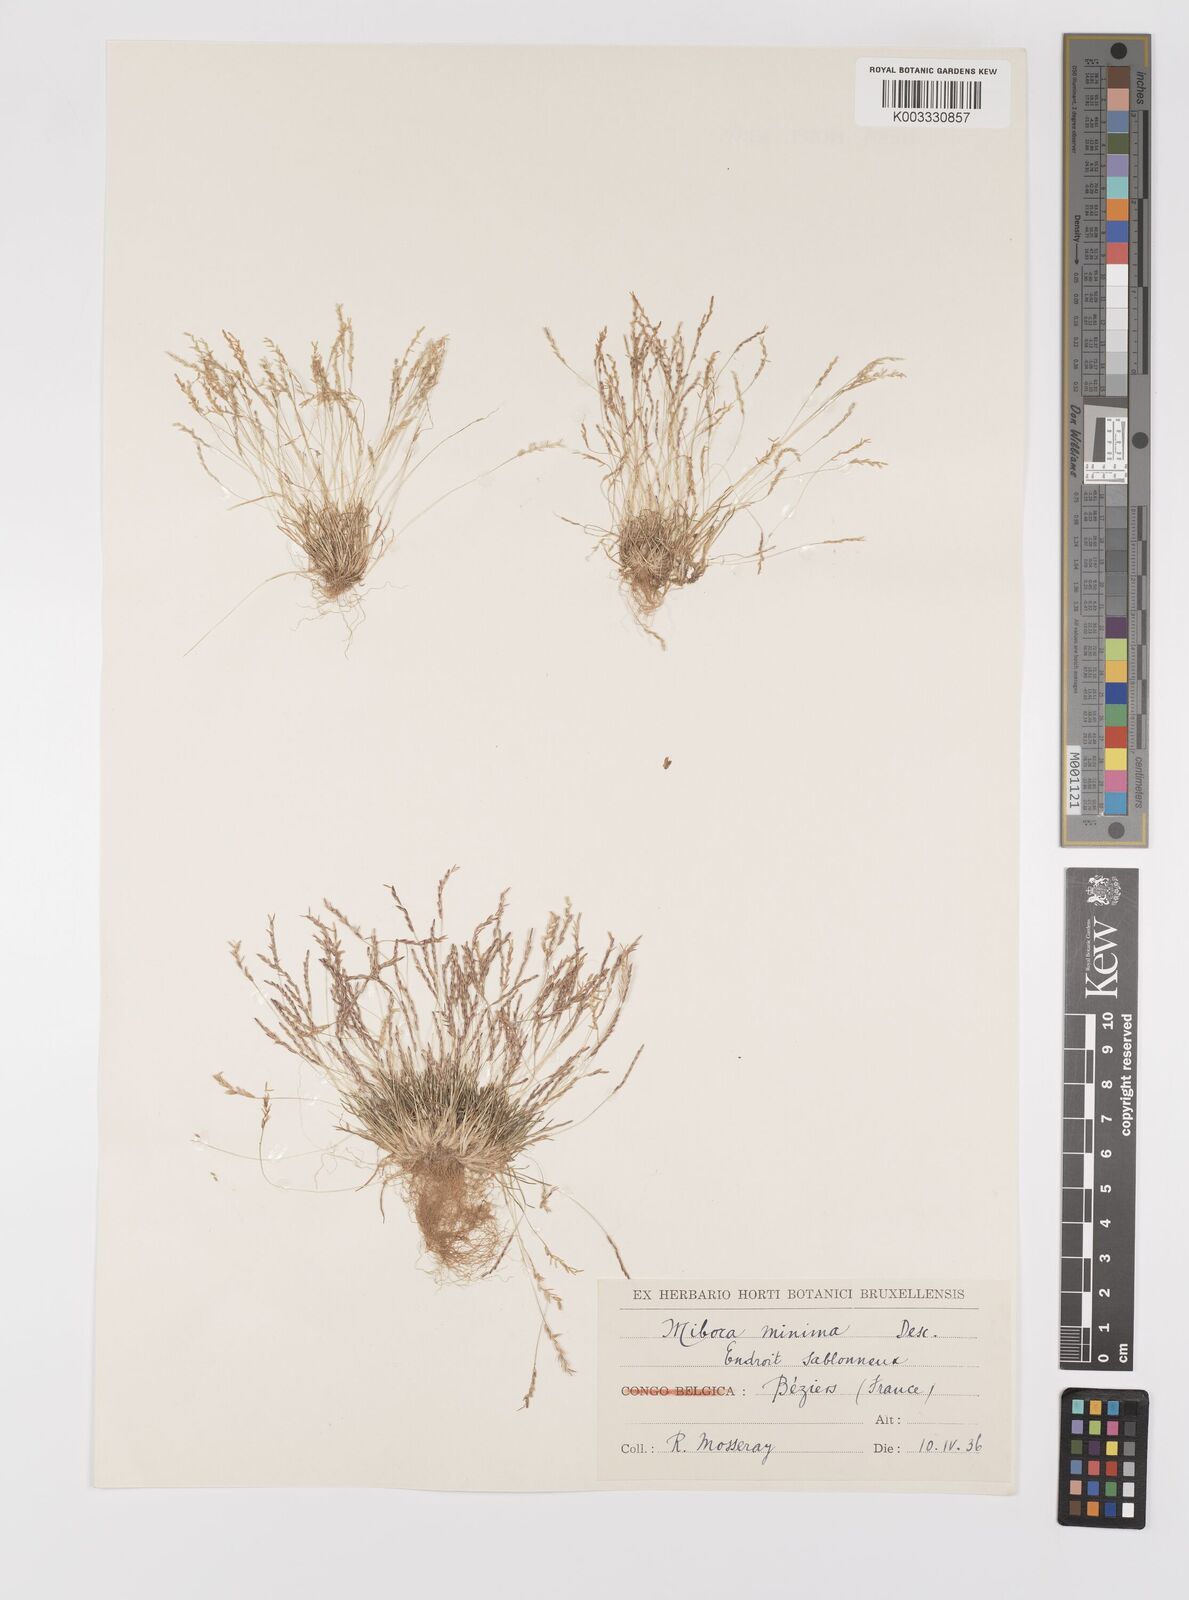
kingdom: Plantae
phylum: Tracheophyta
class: Liliopsida
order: Poales
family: Poaceae
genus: Mibora
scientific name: Mibora minima
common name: Early sand-grass
